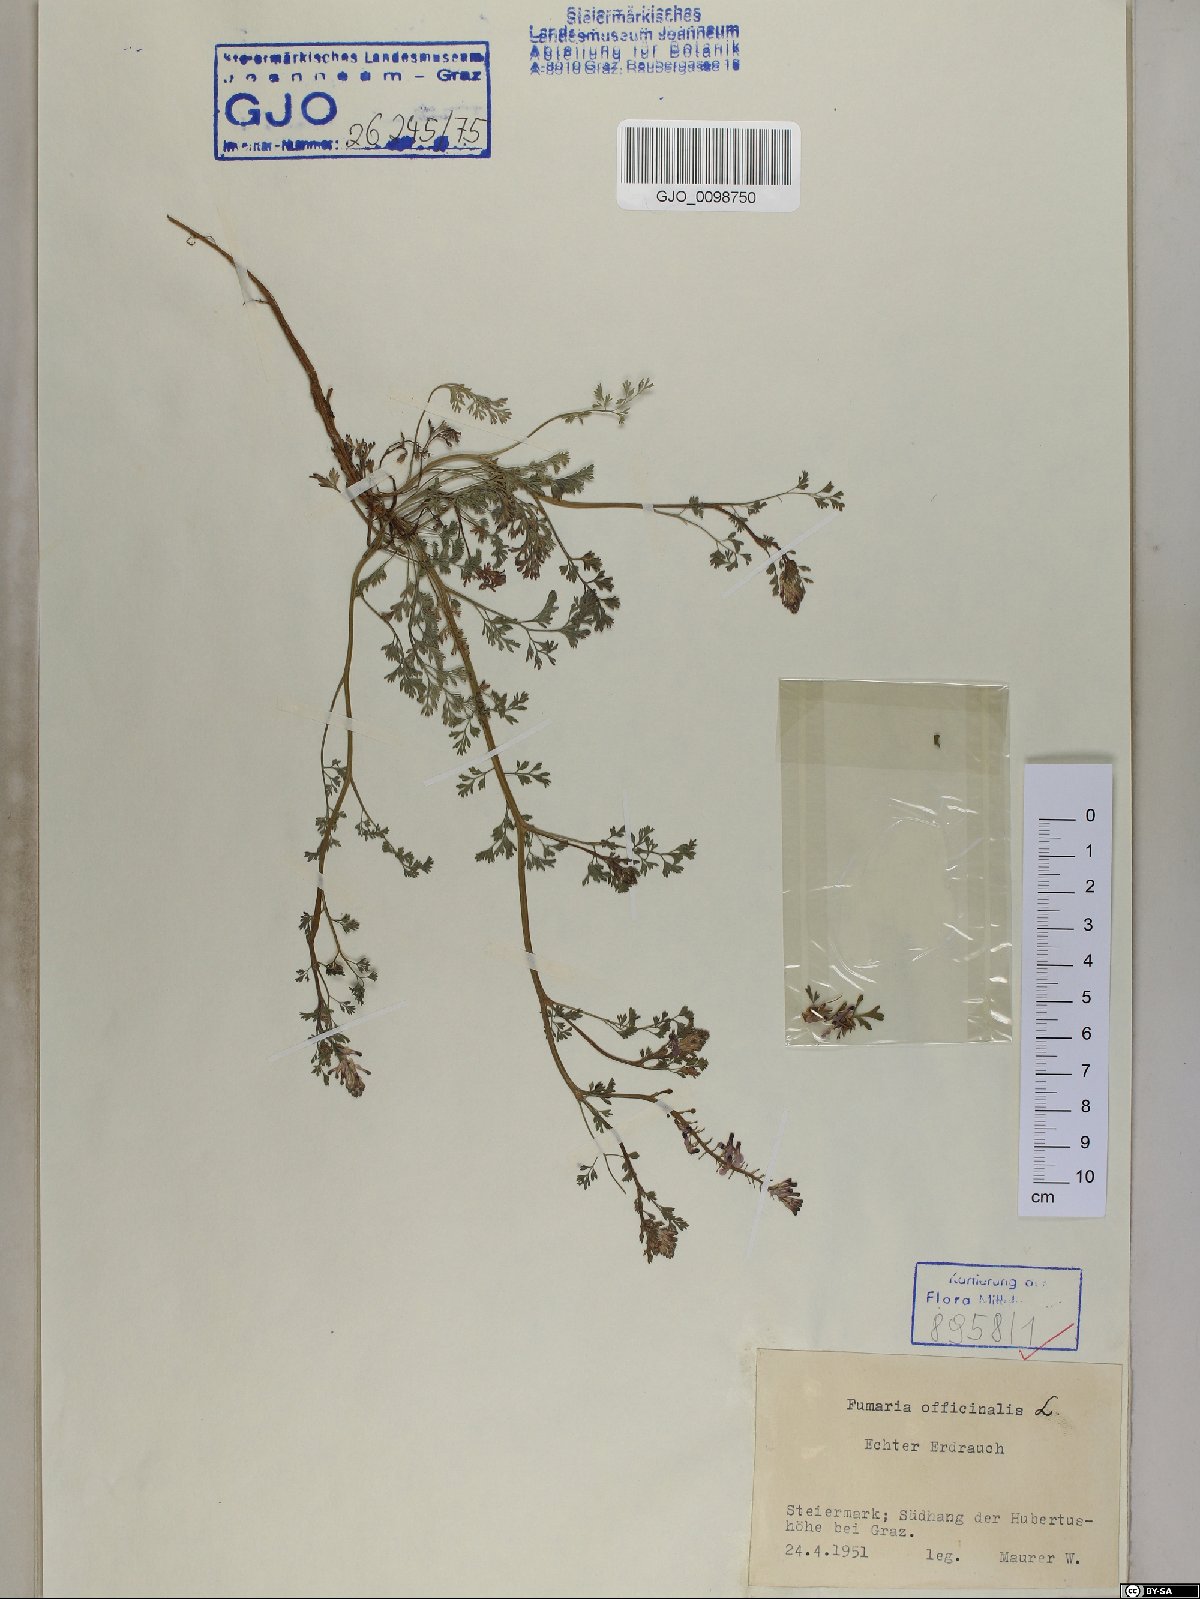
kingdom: Plantae
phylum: Tracheophyta
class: Magnoliopsida
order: Ranunculales
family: Papaveraceae
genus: Fumaria
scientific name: Fumaria officinalis
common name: Common fumitory
